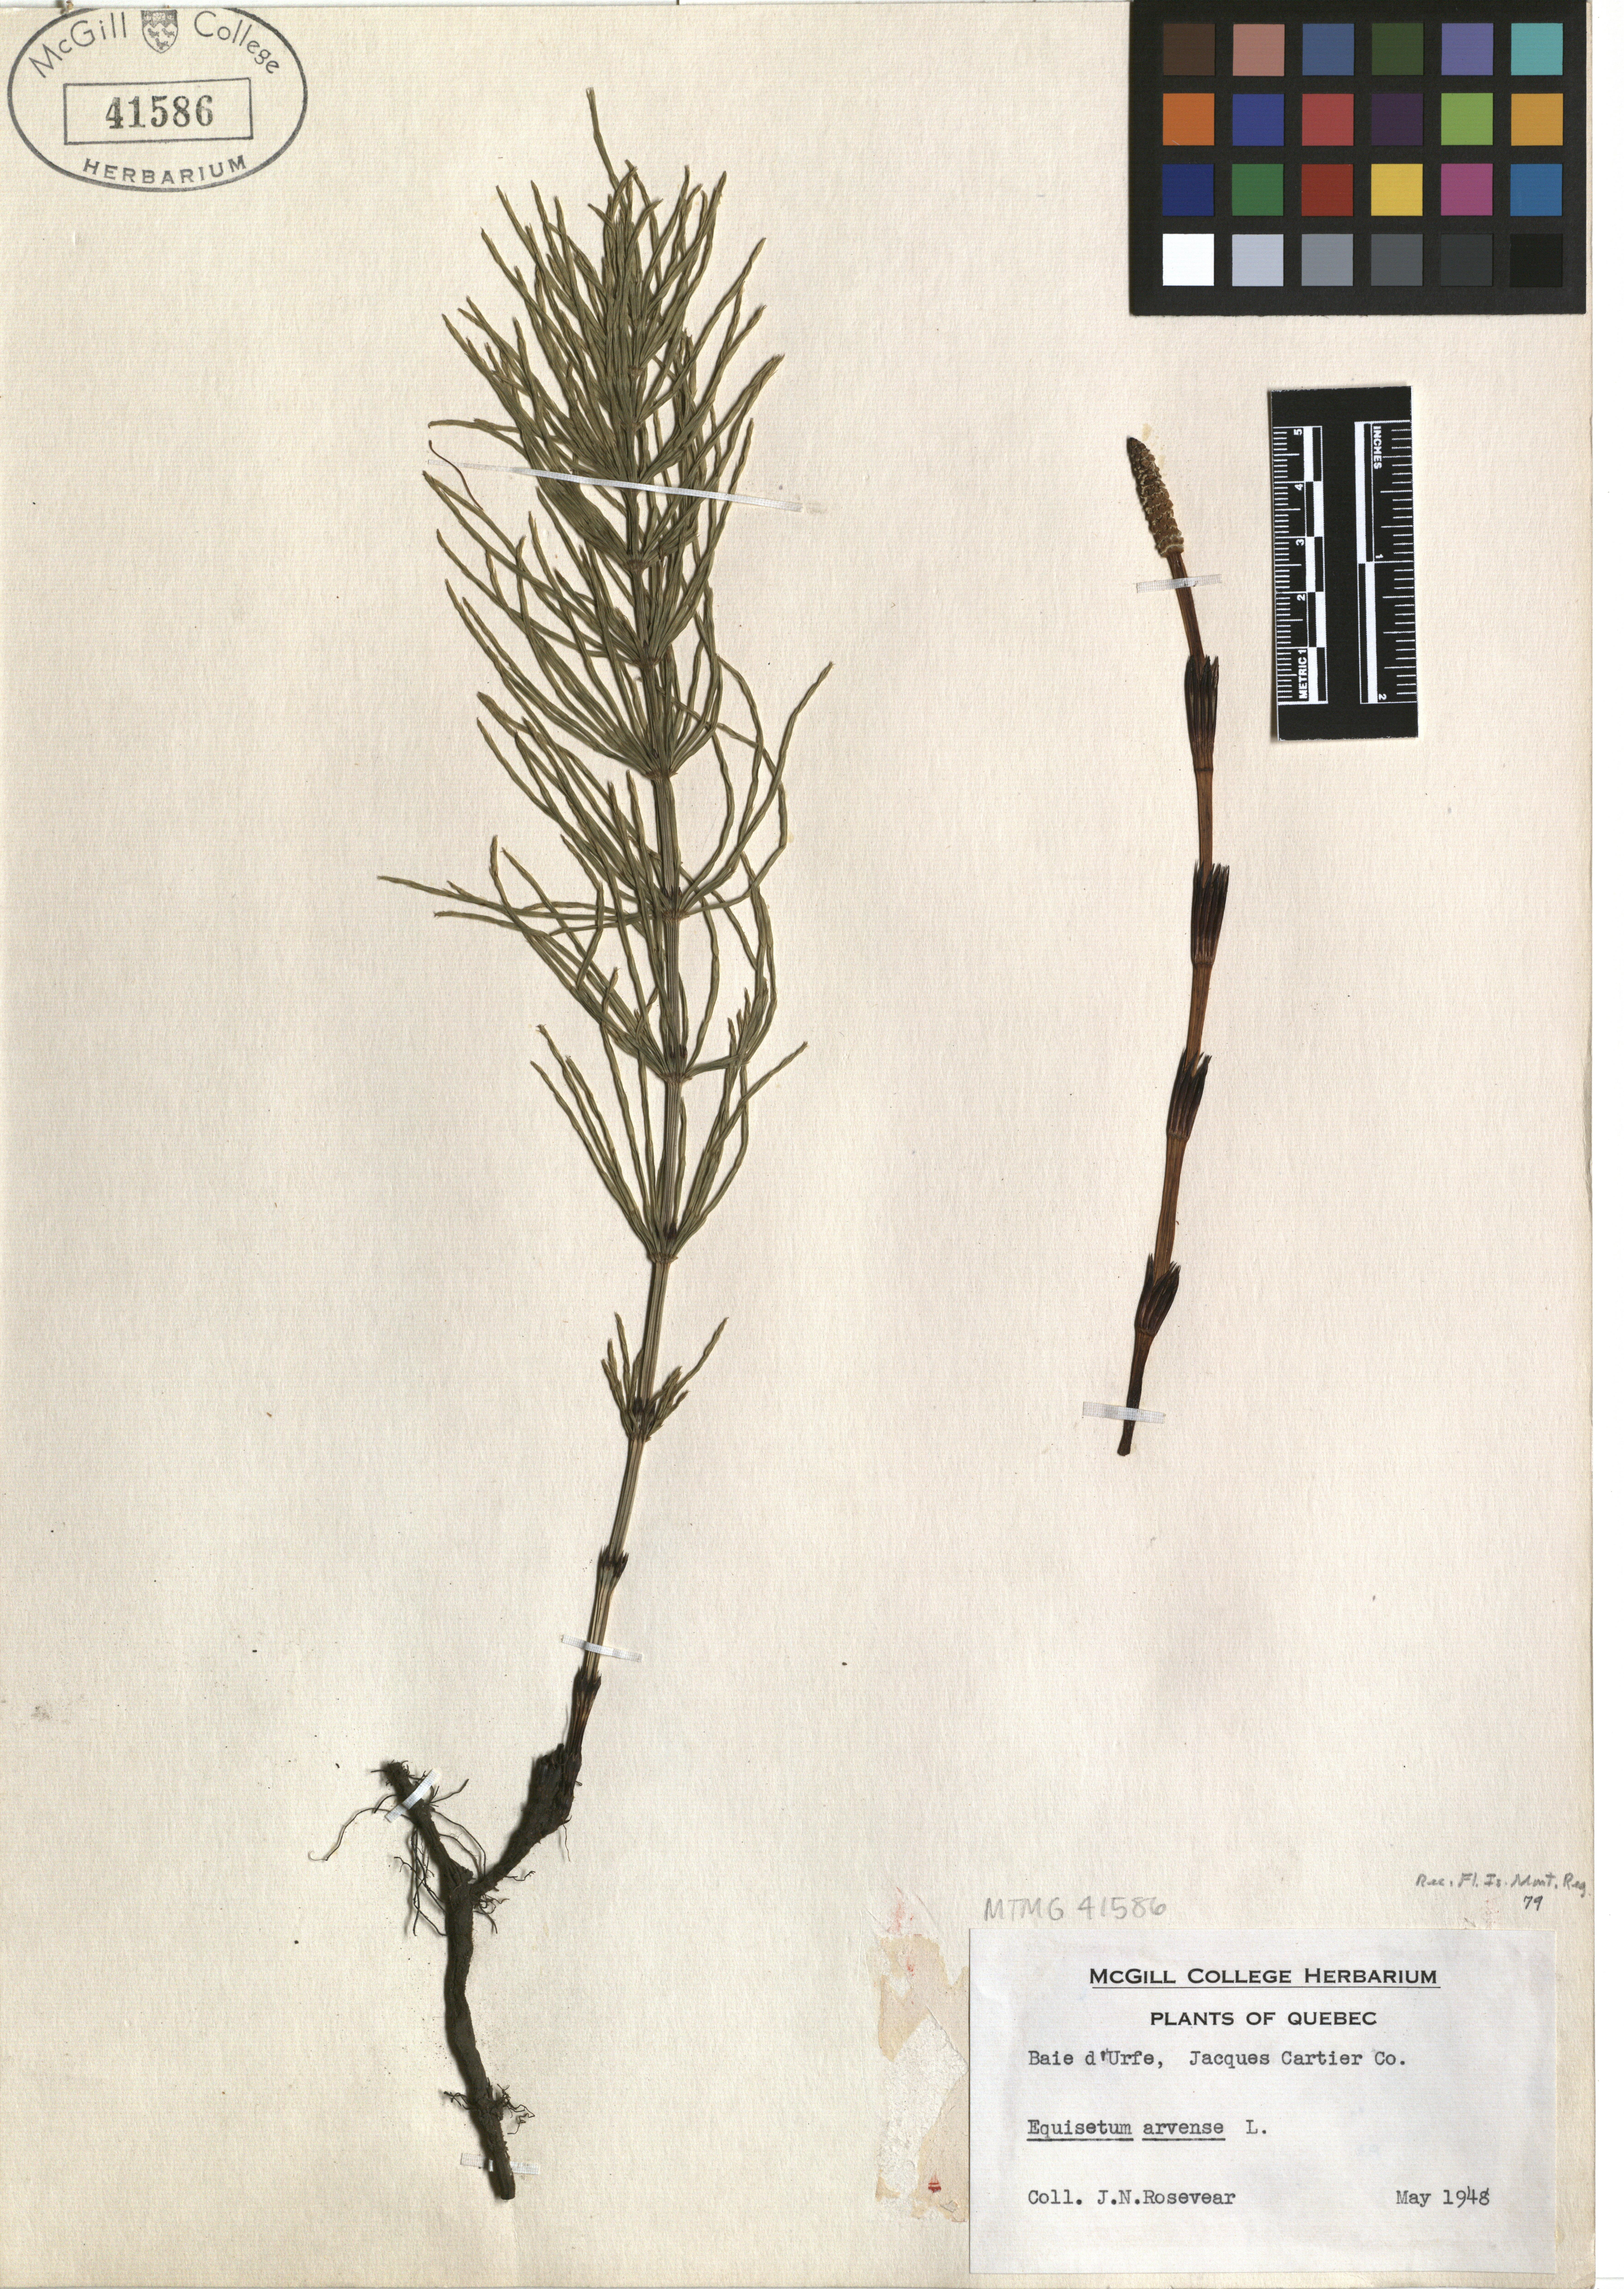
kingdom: Plantae
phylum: Tracheophyta
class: Polypodiopsida
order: Equisetales
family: Equisetaceae
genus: Equisetum
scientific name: Equisetum arvense
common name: Field horsetail
